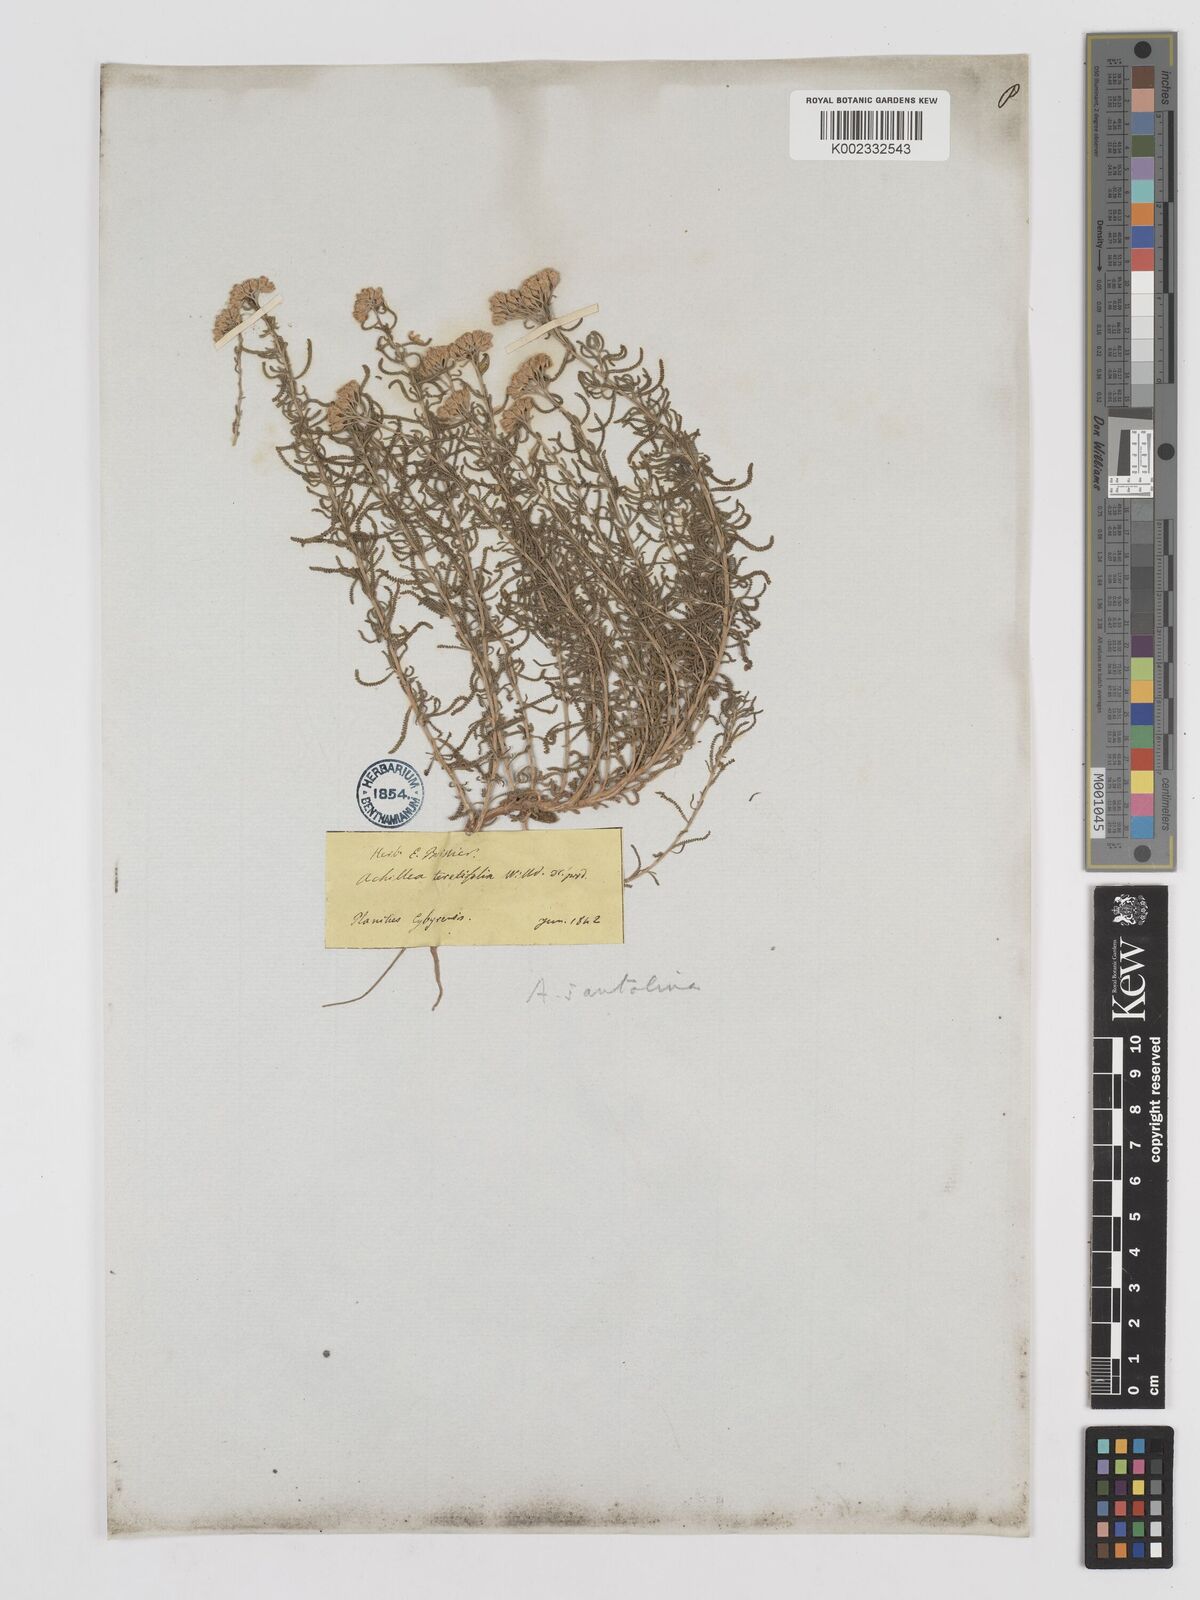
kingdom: Plantae
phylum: Tracheophyta
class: Magnoliopsida
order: Asterales
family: Asteraceae
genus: Achillea
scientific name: Achillea tenuifolia
